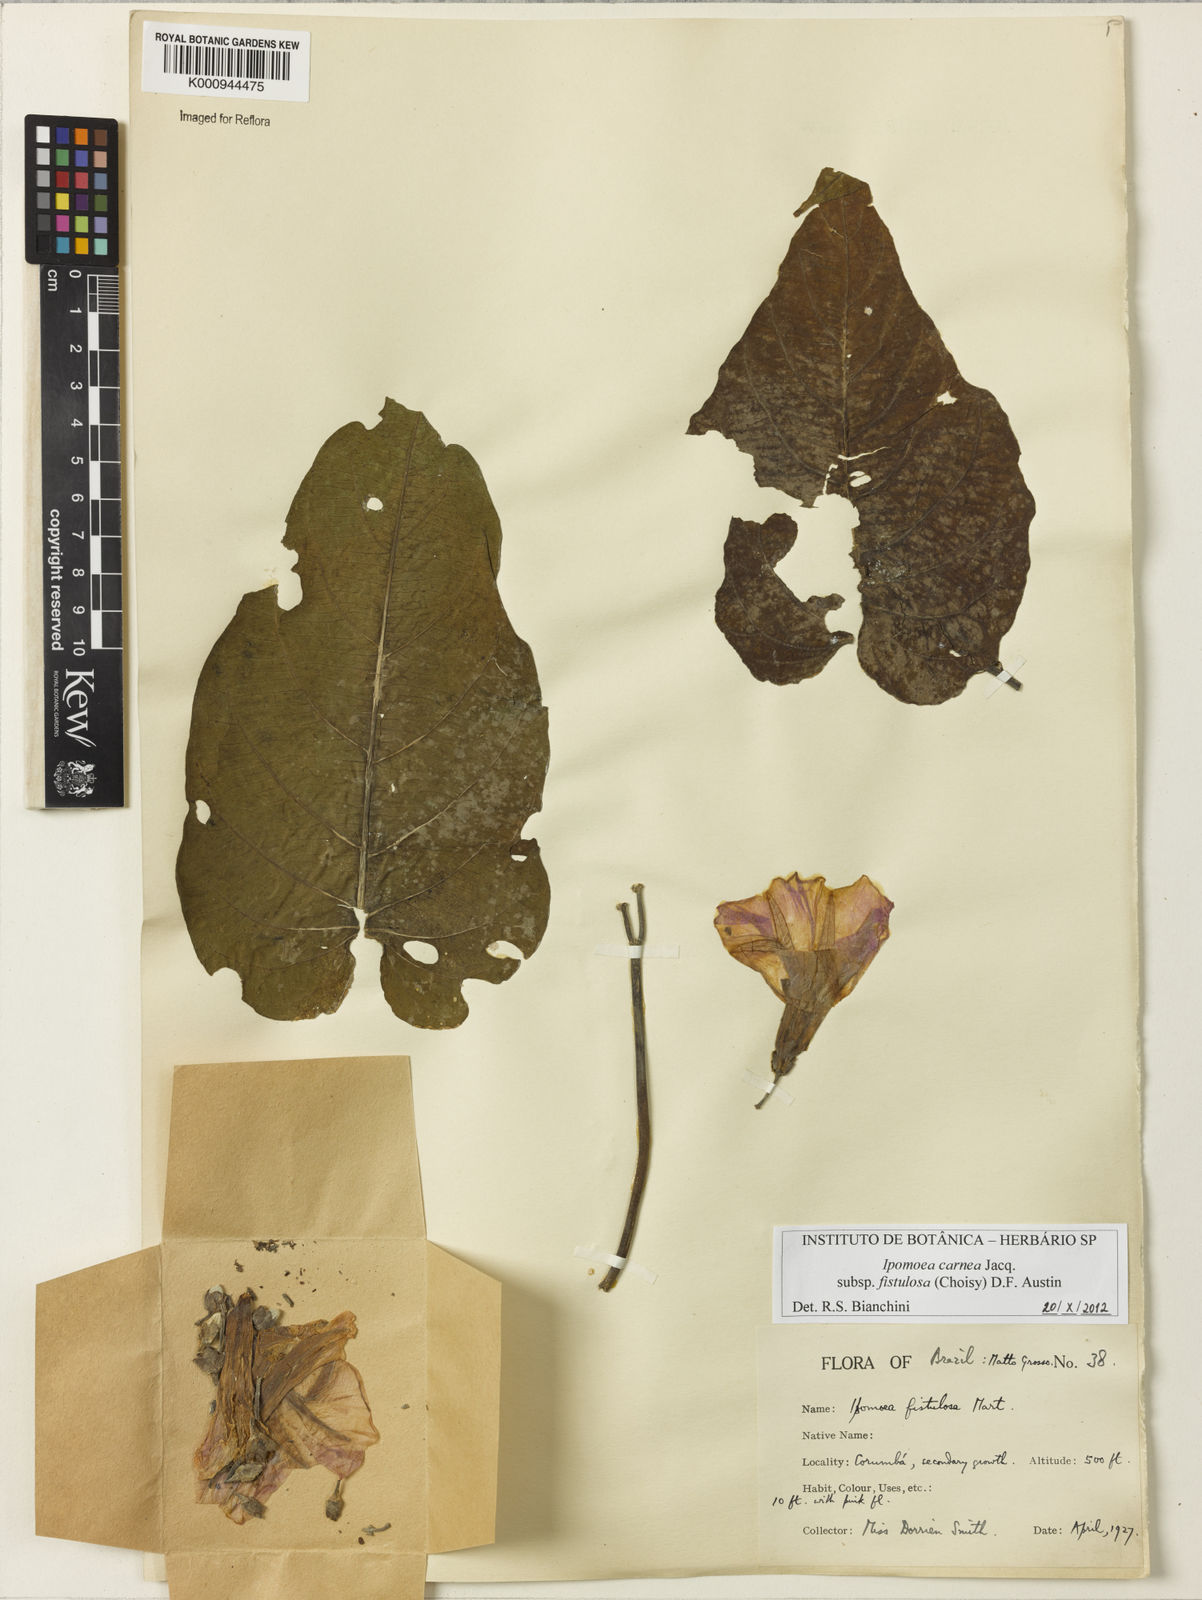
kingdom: Plantae
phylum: Tracheophyta
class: Magnoliopsida
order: Solanales
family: Convolvulaceae
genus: Ipomoea
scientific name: Ipomoea
